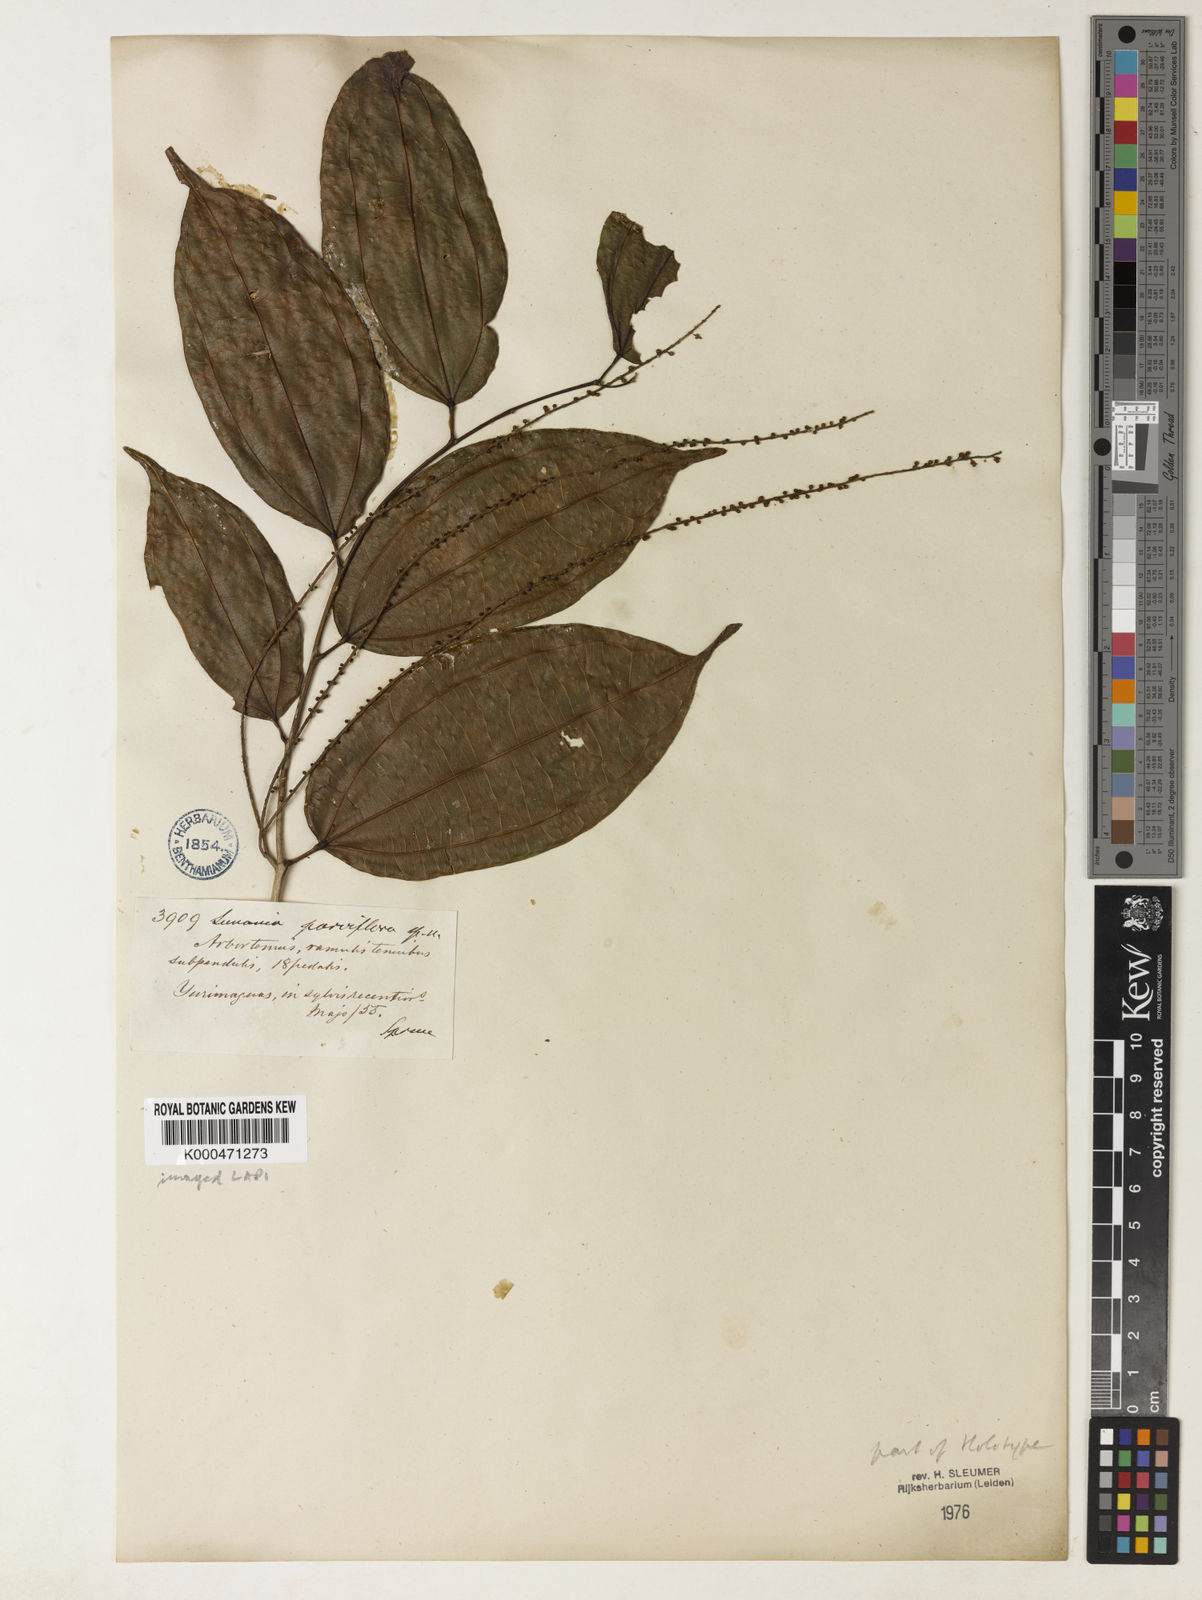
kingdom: Plantae
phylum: Tracheophyta
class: Magnoliopsida
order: Malpighiales
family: Salicaceae
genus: Lunania
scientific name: Lunania parviflora
